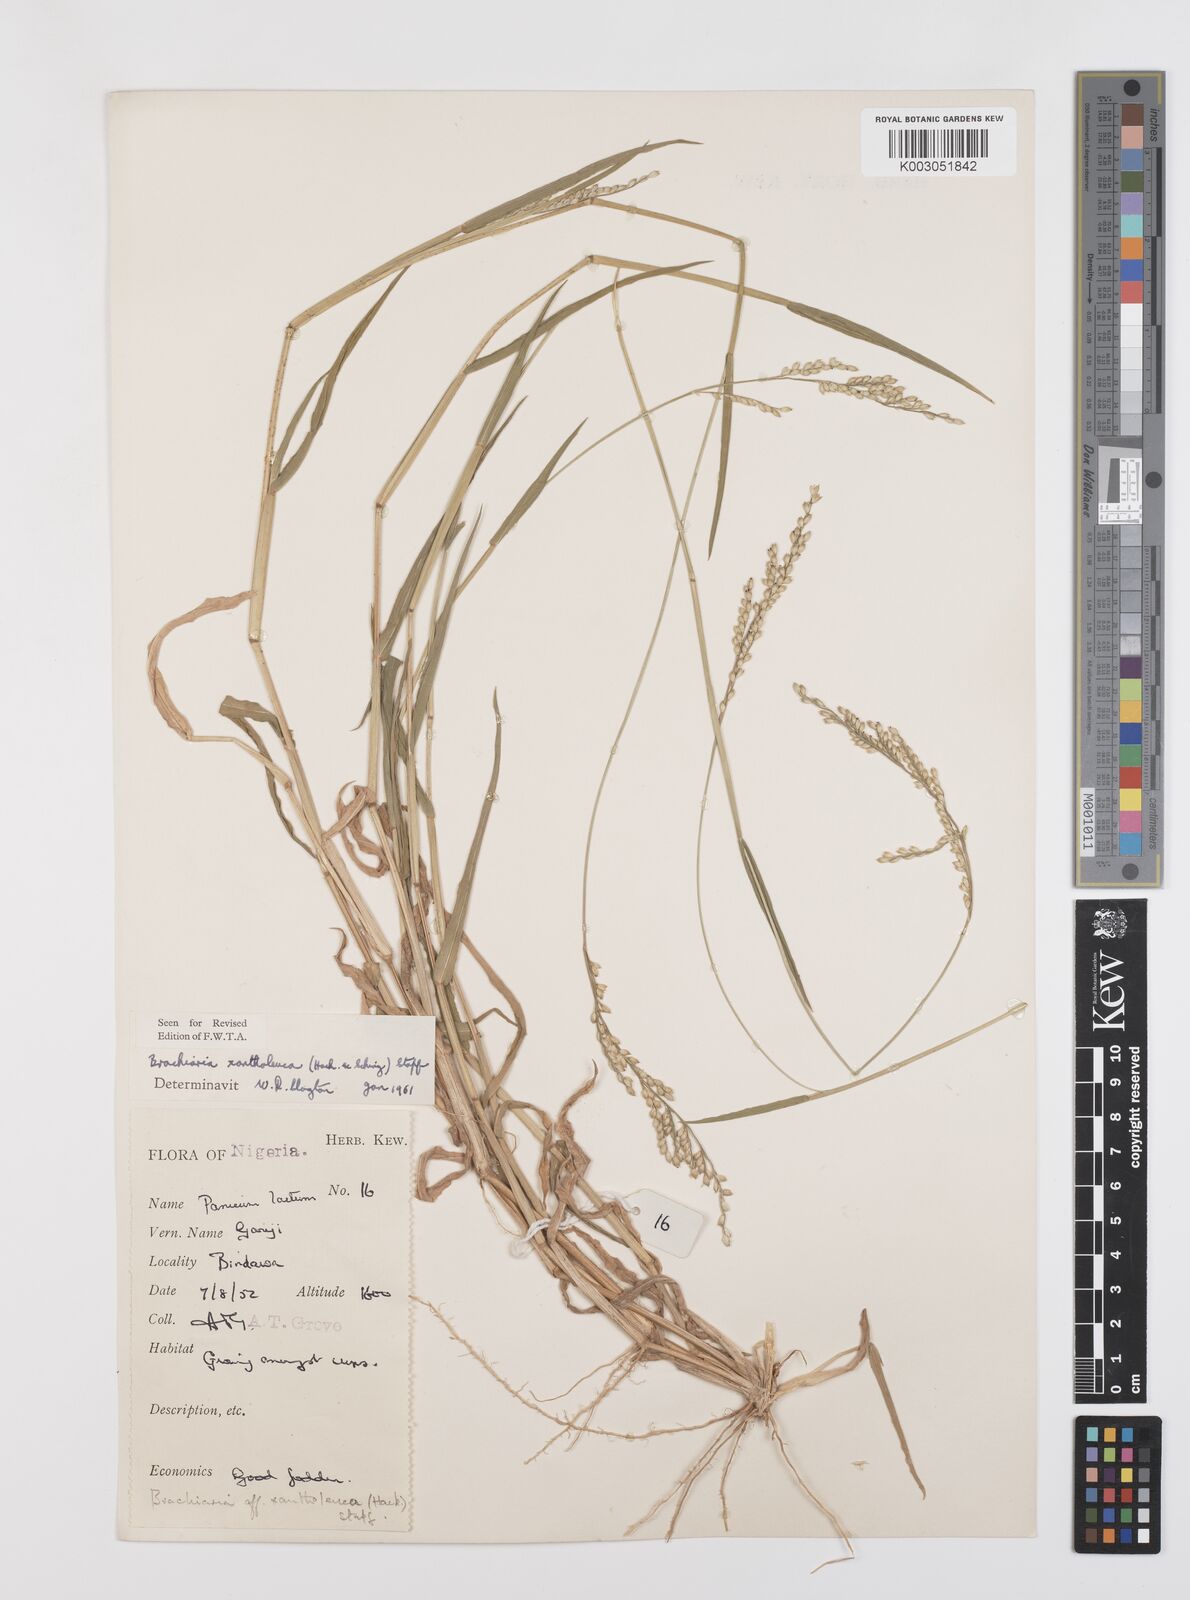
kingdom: Plantae
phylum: Tracheophyta
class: Liliopsida
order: Poales
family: Poaceae
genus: Urochloa
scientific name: Urochloa xantholeuca
